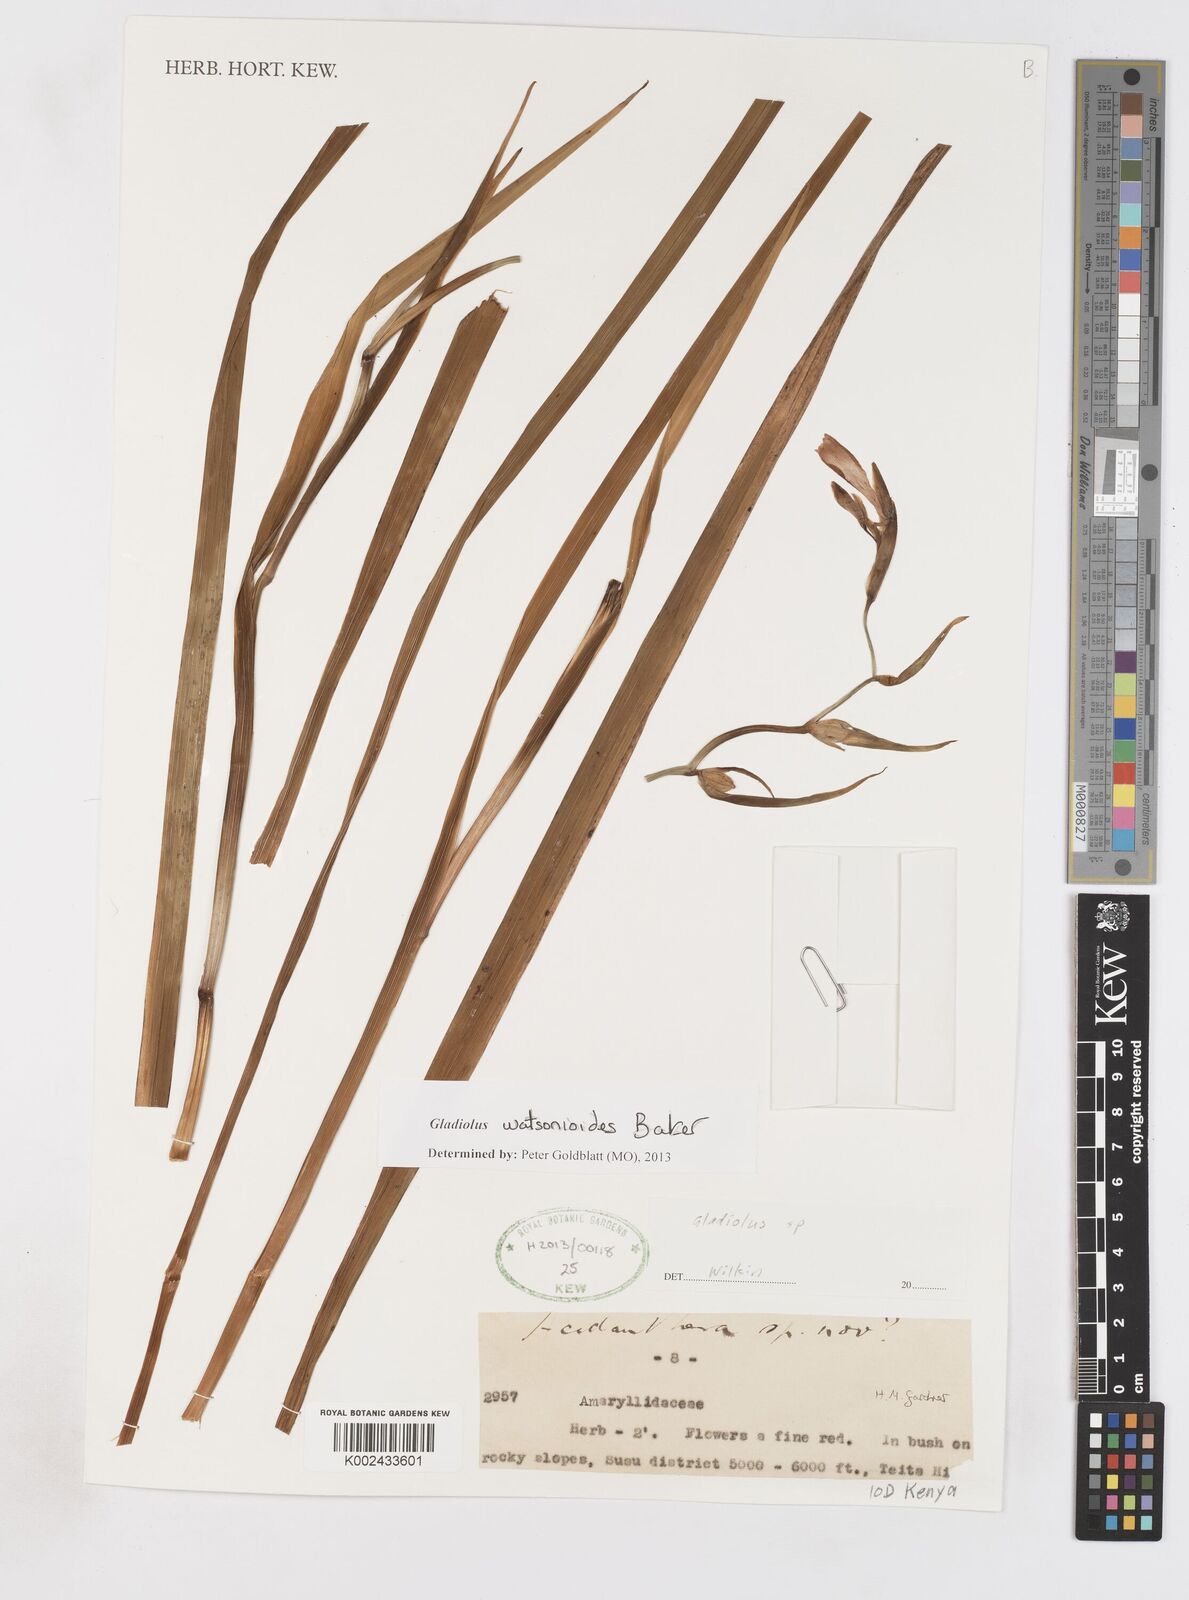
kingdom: Plantae
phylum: Tracheophyta
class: Liliopsida
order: Asparagales
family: Iridaceae
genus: Gladiolus
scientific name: Gladiolus watsonioides
